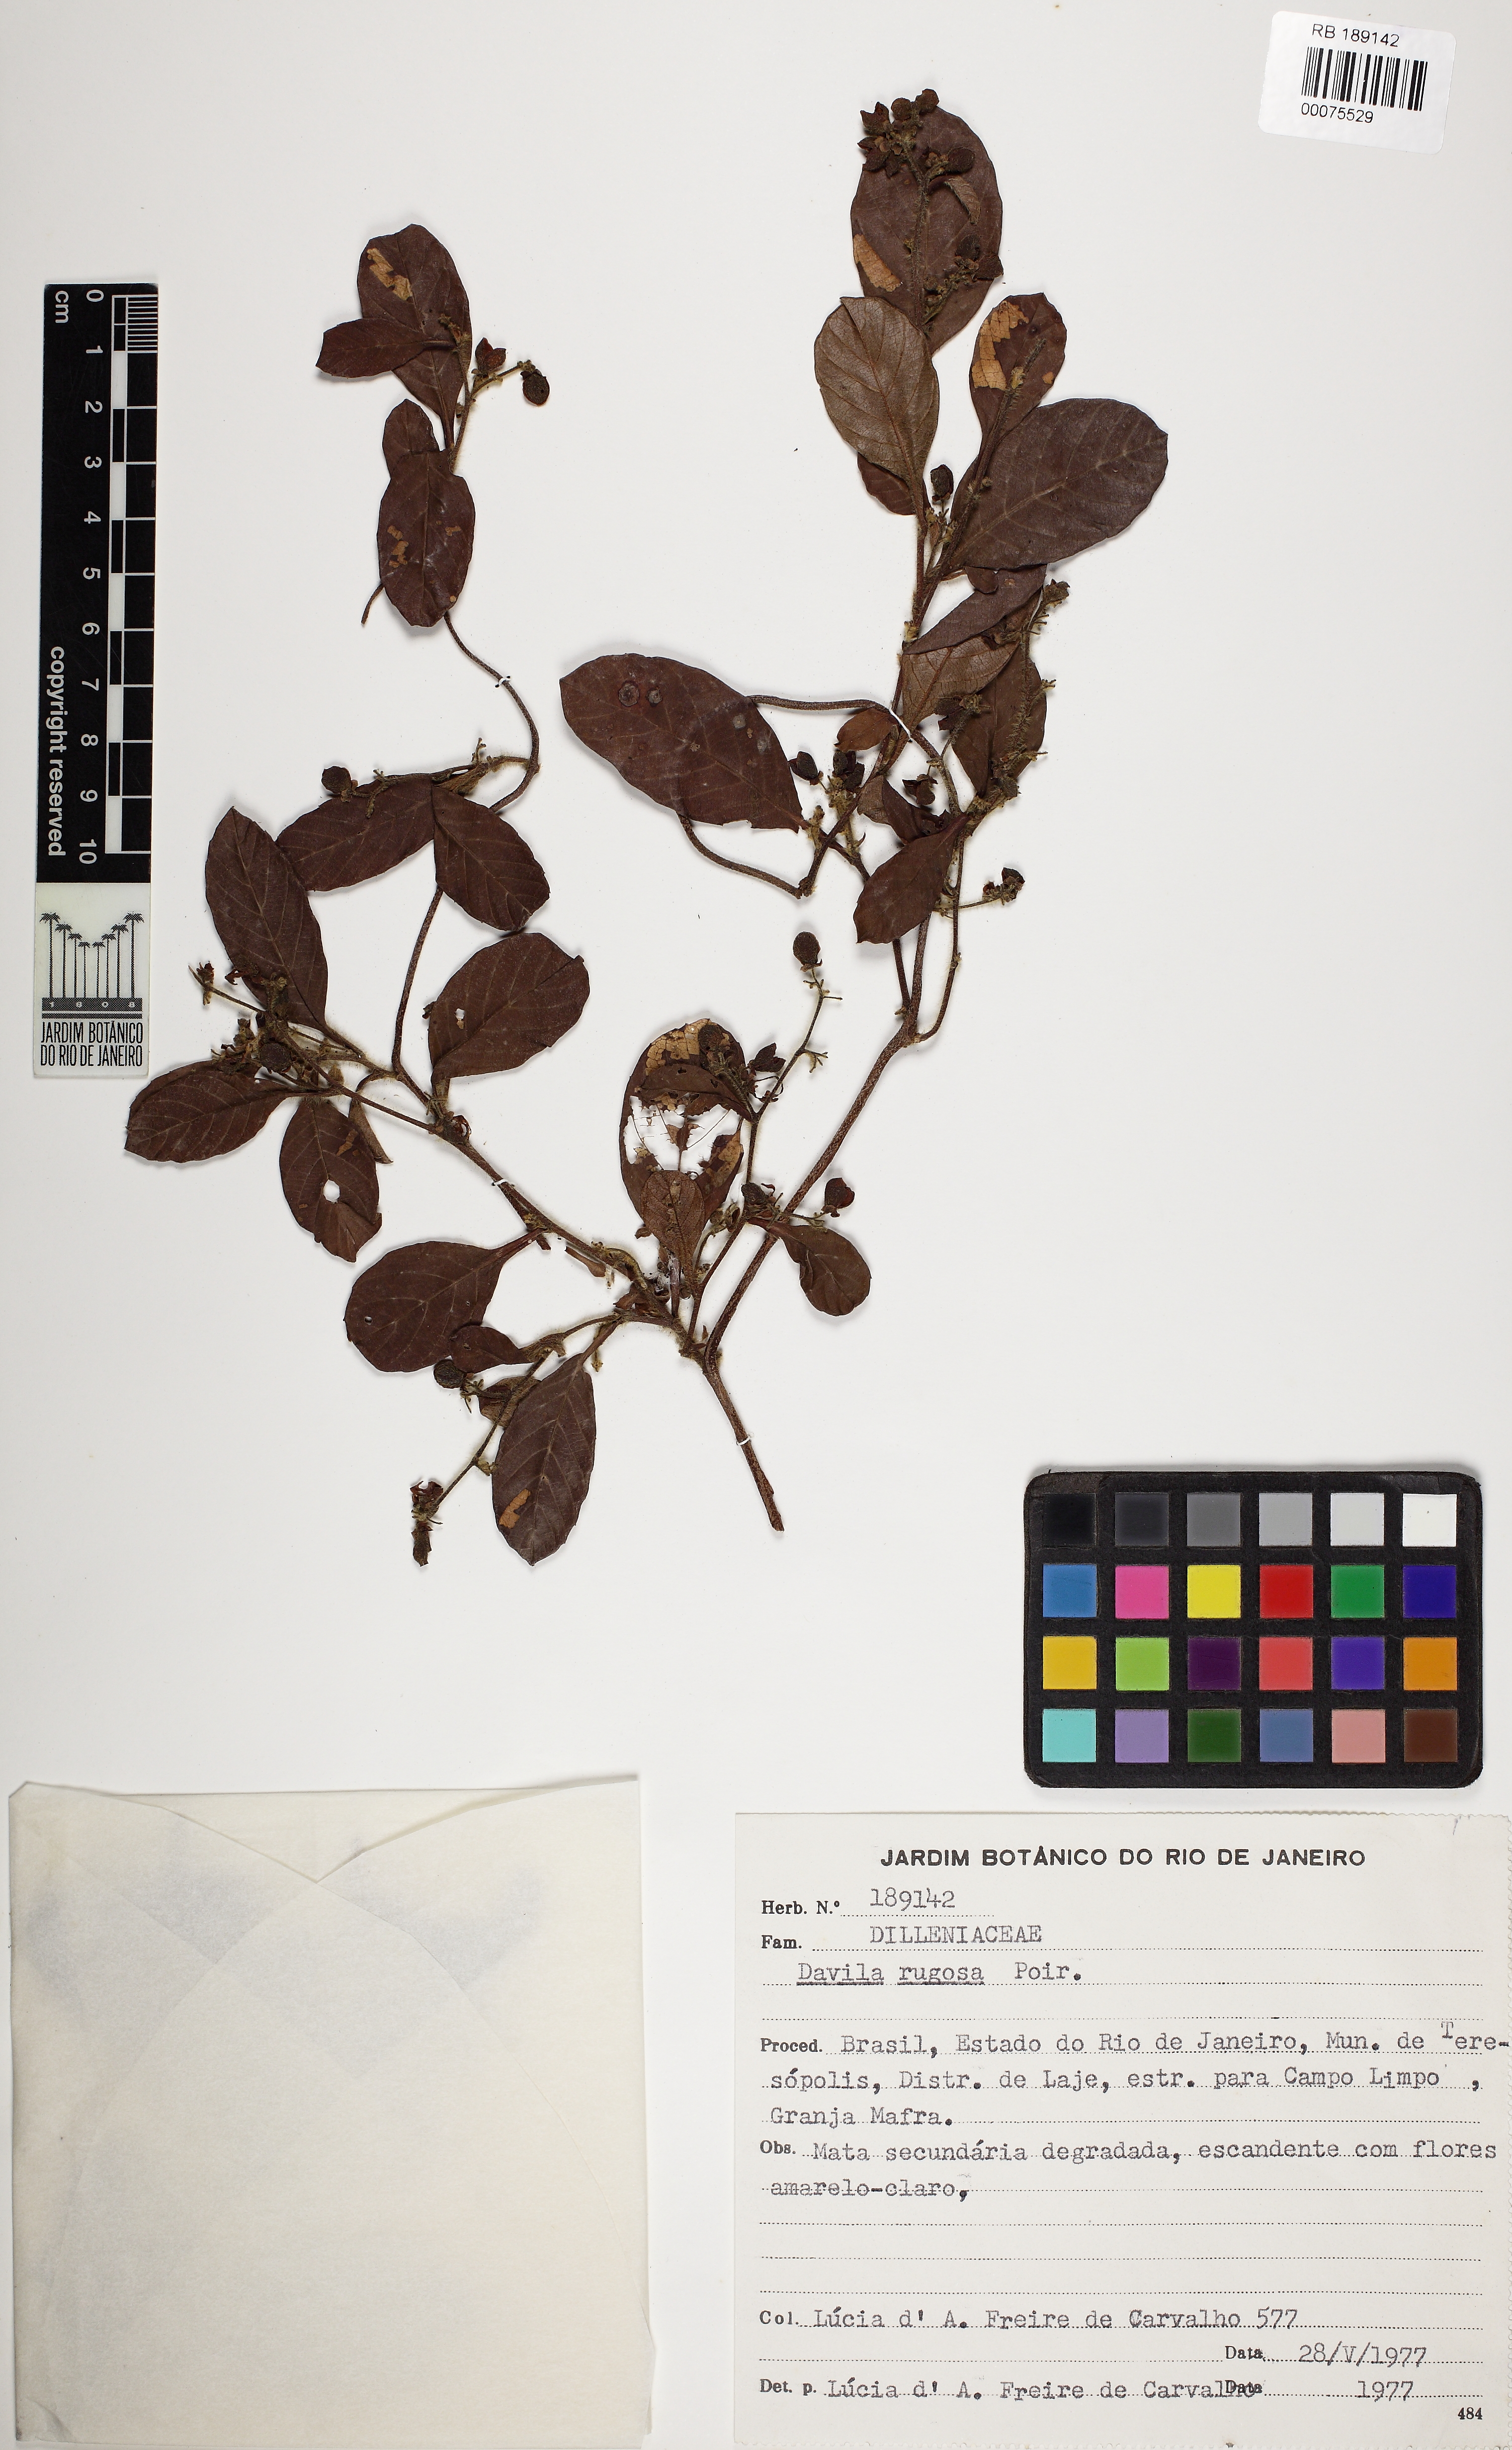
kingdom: Plantae
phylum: Tracheophyta
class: Magnoliopsida
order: Dilleniales
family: Dilleniaceae
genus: Davilla
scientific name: Davilla rugosa
